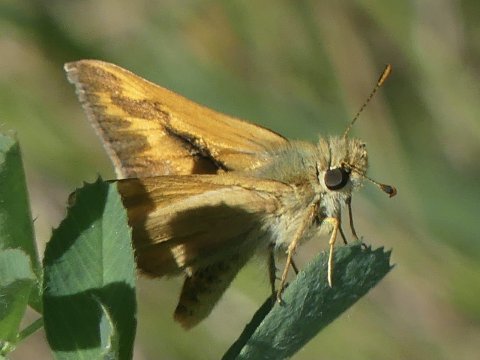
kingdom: Animalia
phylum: Arthropoda
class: Insecta
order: Lepidoptera
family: Hesperiidae
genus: Ochlodes
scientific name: Ochlodes sylvanoides
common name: Woodland Skipper
